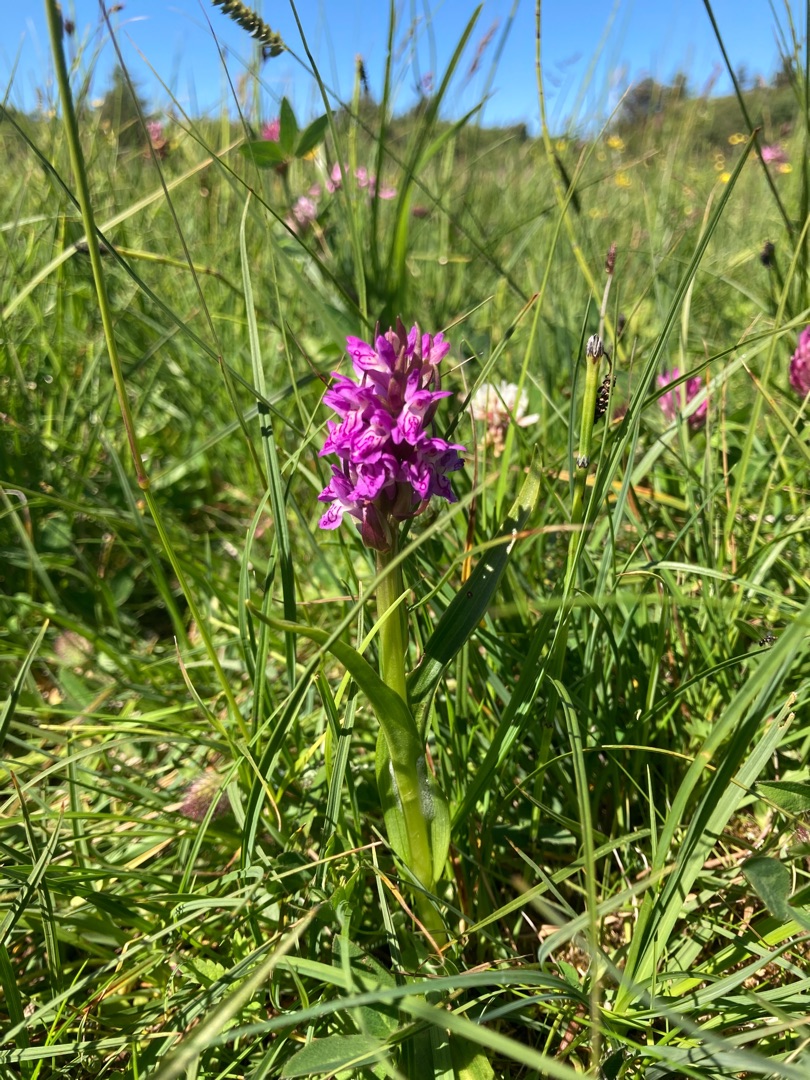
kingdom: Plantae
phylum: Tracheophyta
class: Liliopsida
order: Asparagales
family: Orchidaceae
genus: Dactylorhiza
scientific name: Dactylorhiza incarnata
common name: Kødfarvet gøgeurt
